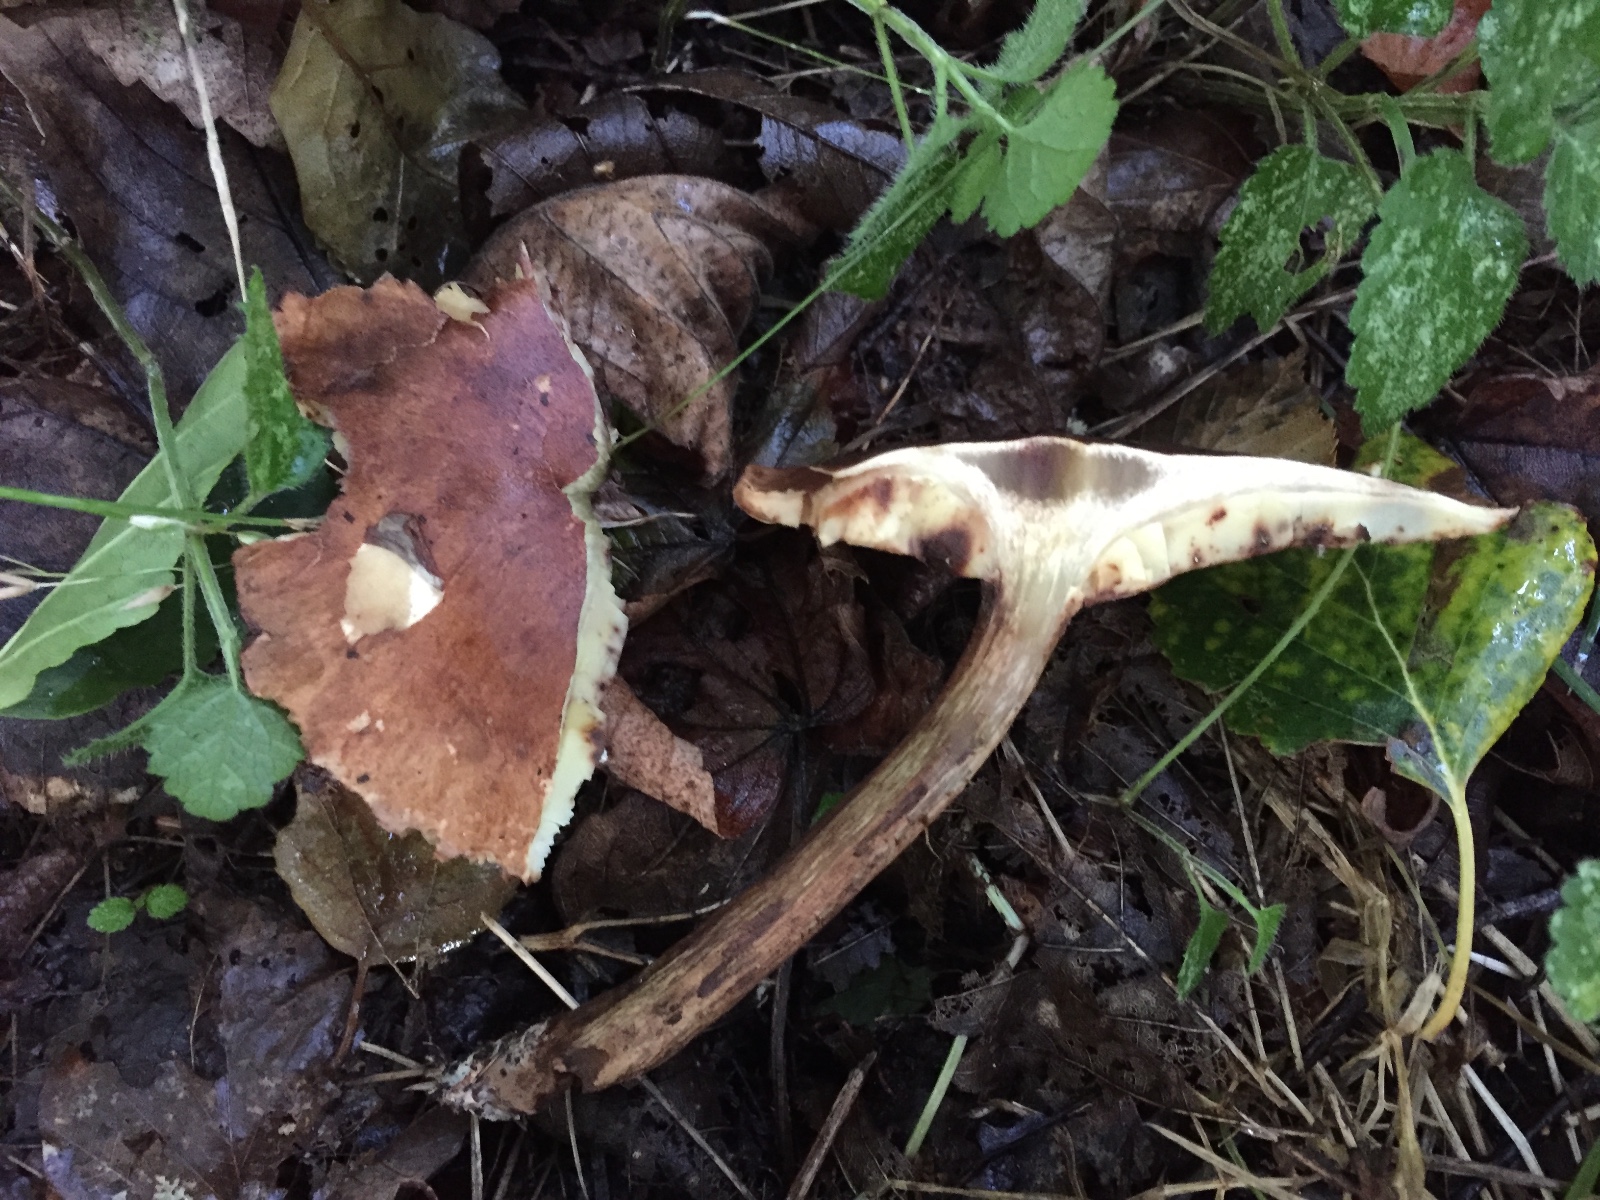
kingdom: Fungi
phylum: Basidiomycota
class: Agaricomycetes
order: Agaricales
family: Tricholomataceae
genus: Tricholoma
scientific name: Tricholoma fulvum
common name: birke-ridderhat
